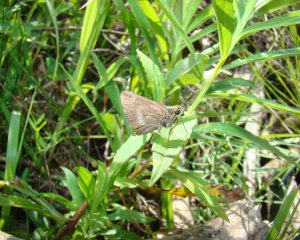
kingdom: Animalia
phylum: Arthropoda
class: Insecta
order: Lepidoptera
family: Hesperiidae
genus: Polites
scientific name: Polites
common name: Crossline Skipper
